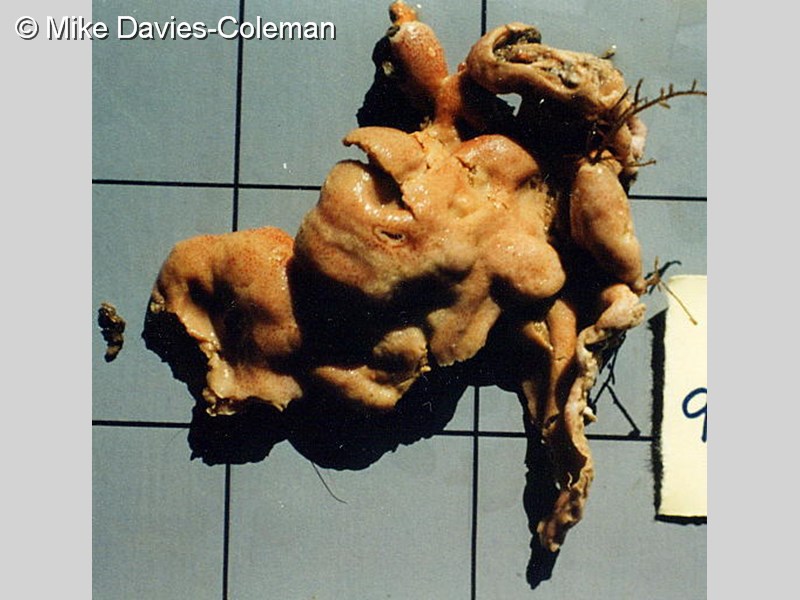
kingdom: Animalia
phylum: Chordata
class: Ascidiacea
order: Aplousobranchia
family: Didemnidae
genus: Didemnum
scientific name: Didemnum
